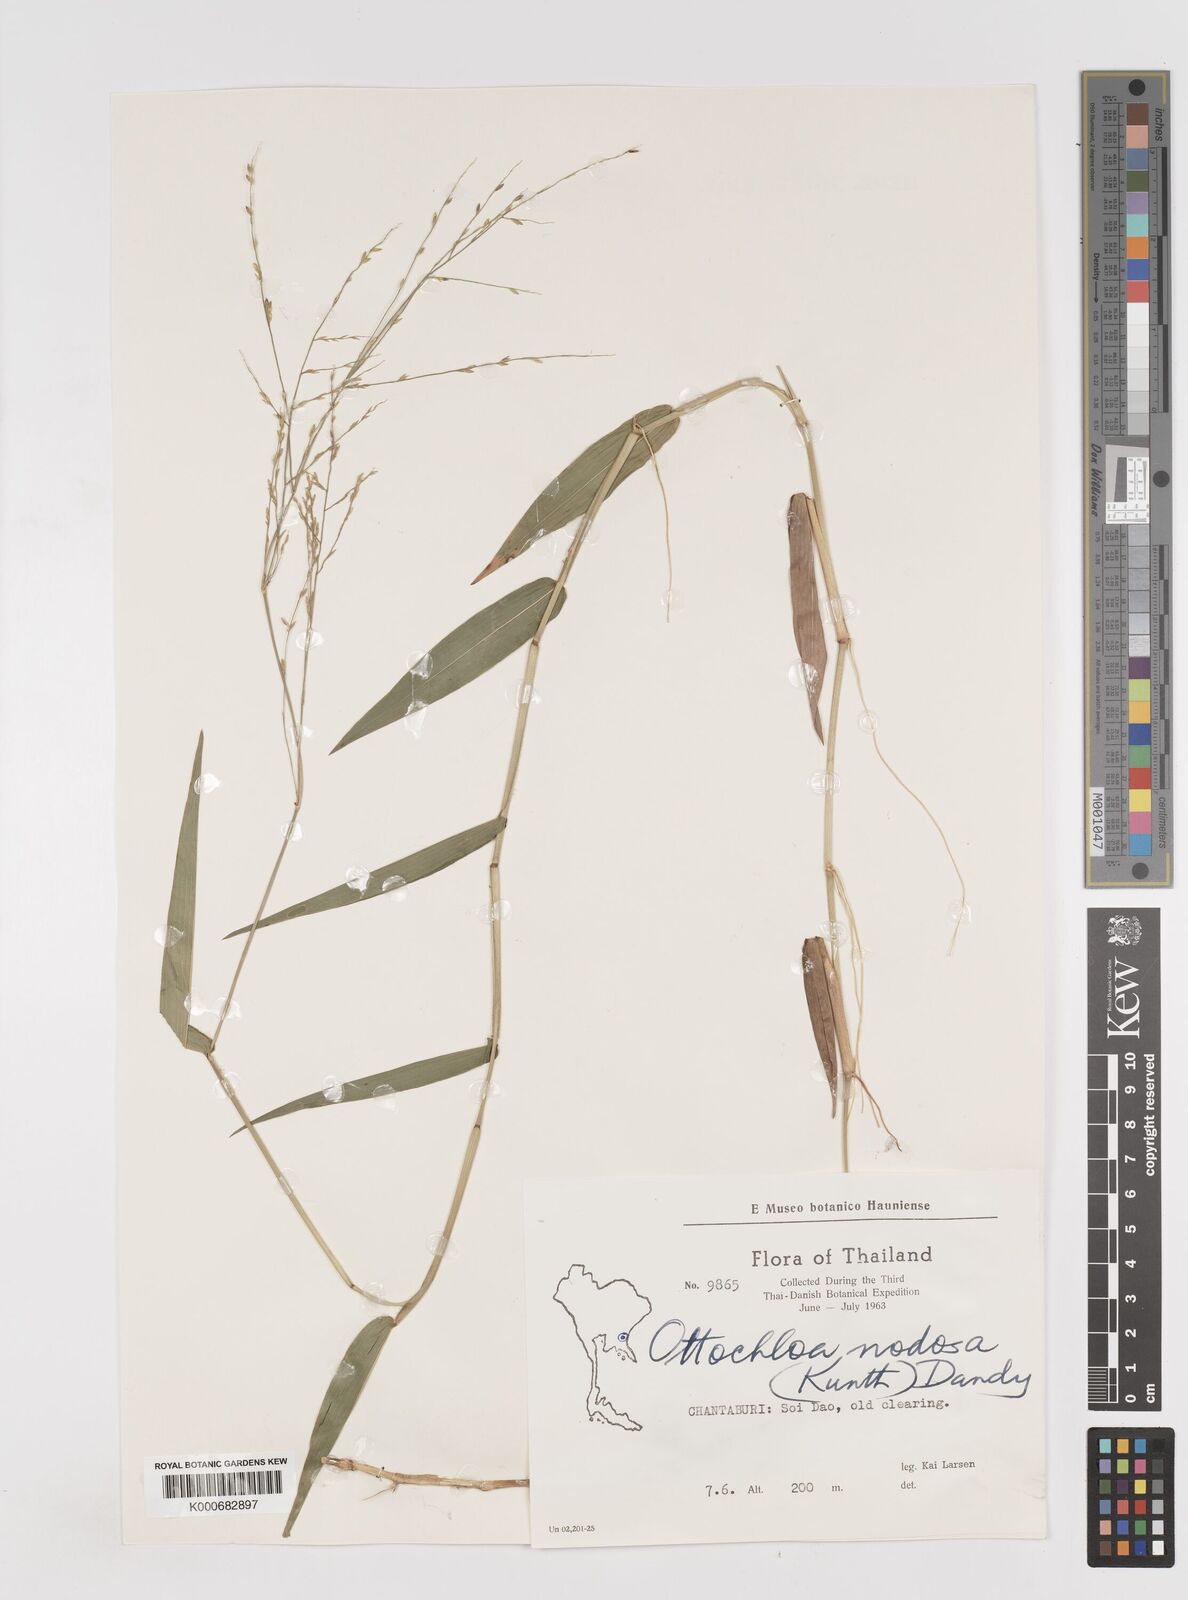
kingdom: Plantae
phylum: Tracheophyta
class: Liliopsida
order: Poales
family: Poaceae
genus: Ottochloa
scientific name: Ottochloa nodosa
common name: Slender-panic grass
